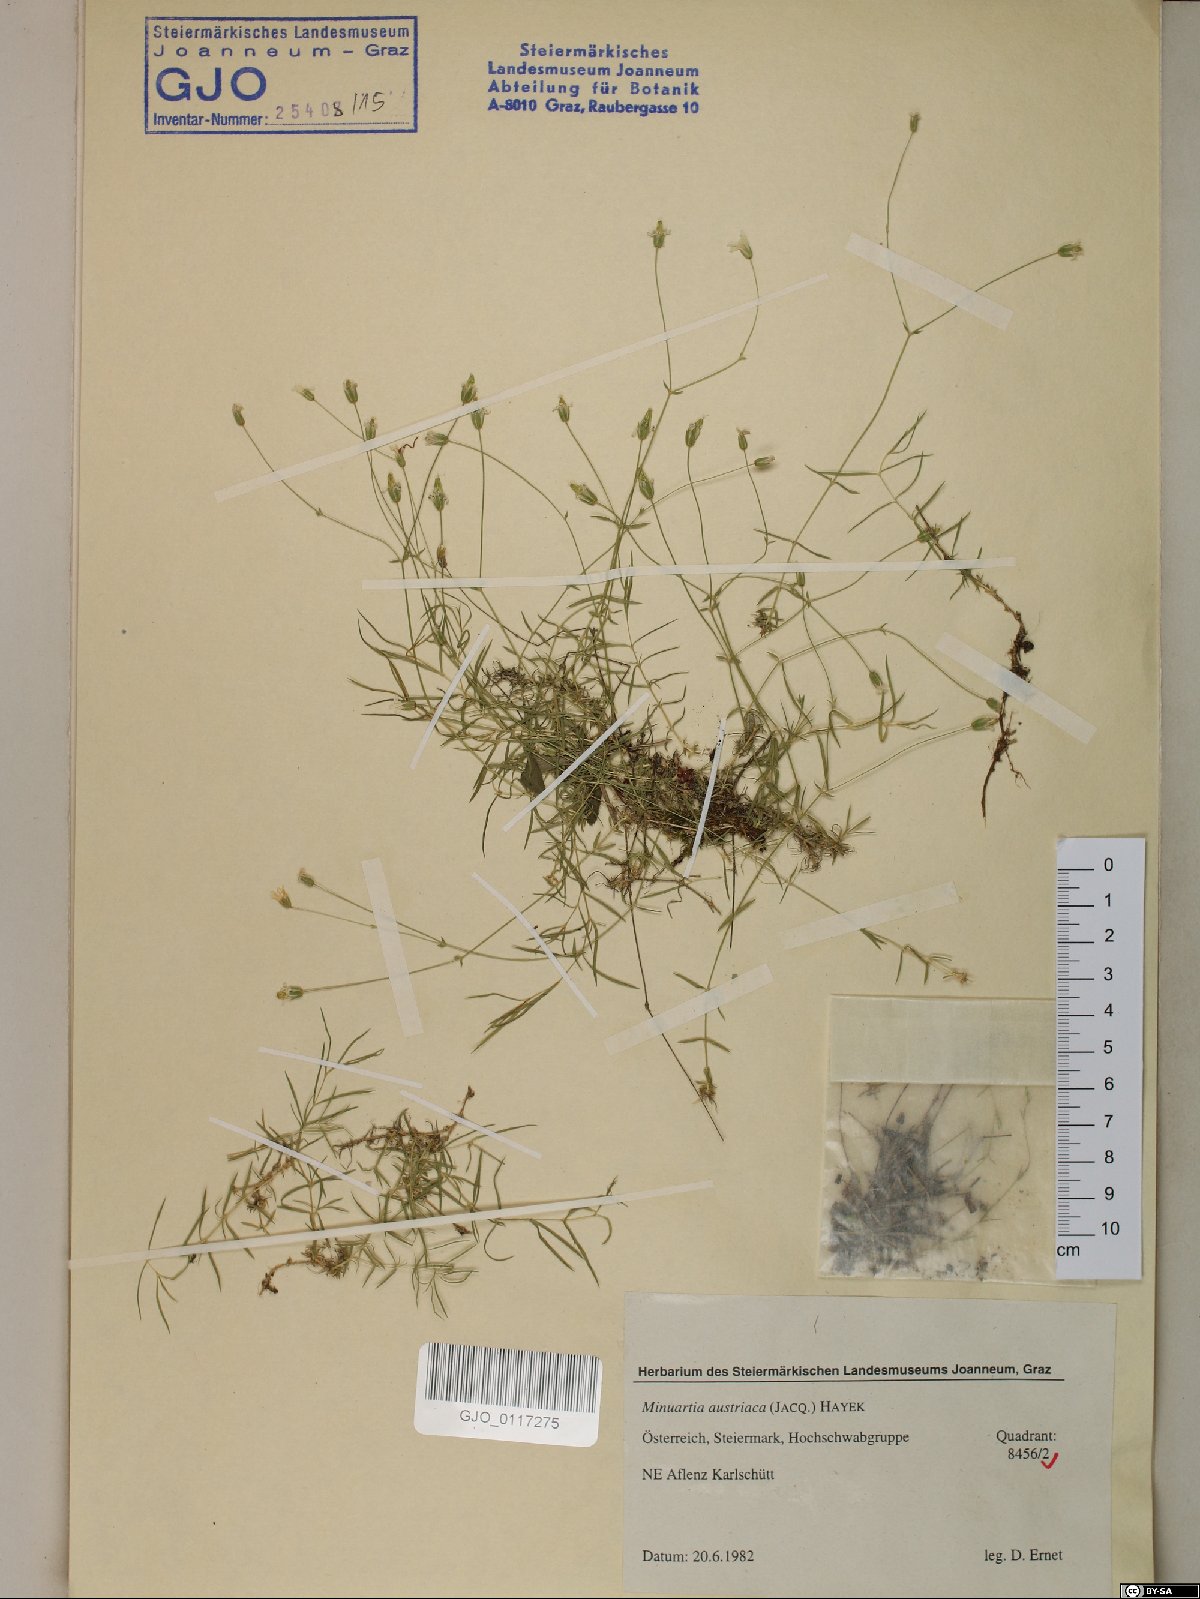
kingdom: Plantae
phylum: Tracheophyta
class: Magnoliopsida
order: Caryophyllales
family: Caryophyllaceae
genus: Sabulina
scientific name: Sabulina austriaca
